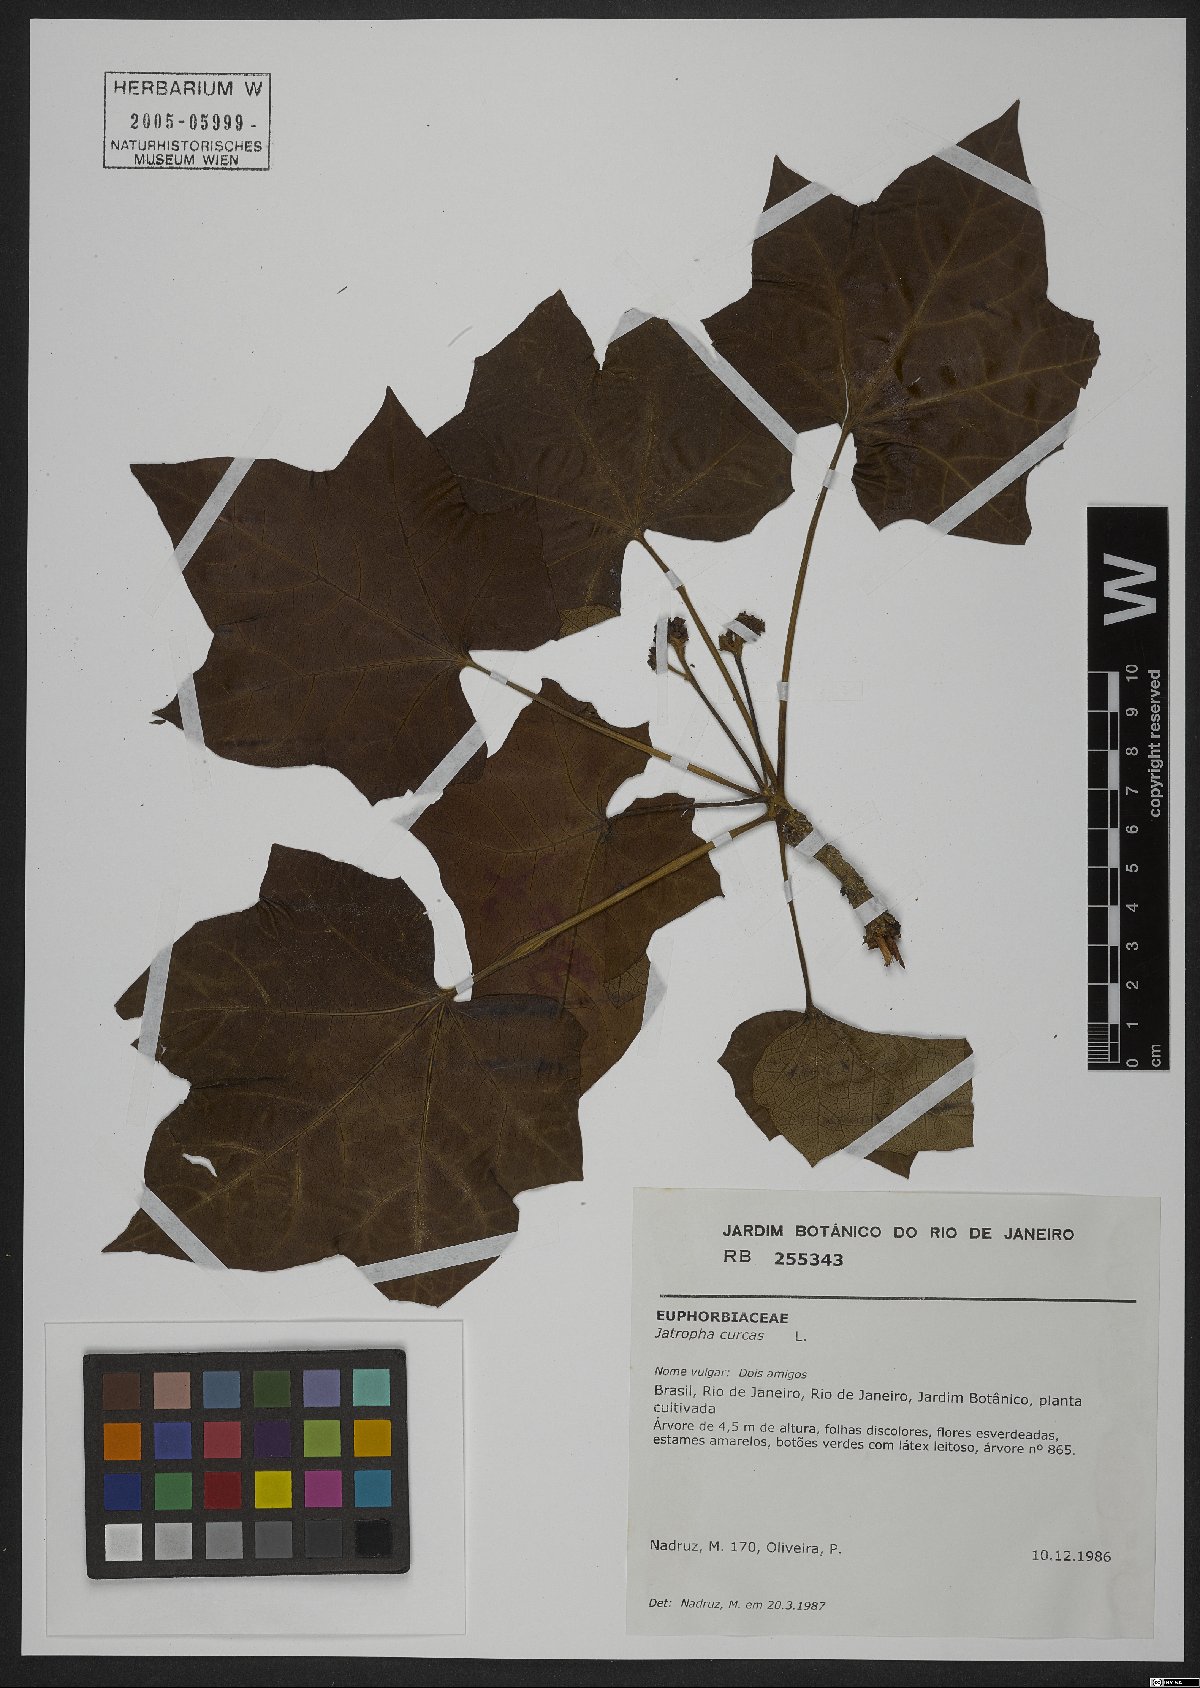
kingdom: Plantae
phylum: Tracheophyta
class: Magnoliopsida
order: Malpighiales
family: Euphorbiaceae
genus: Jatropha
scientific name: Jatropha curcas
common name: Barbados nut
